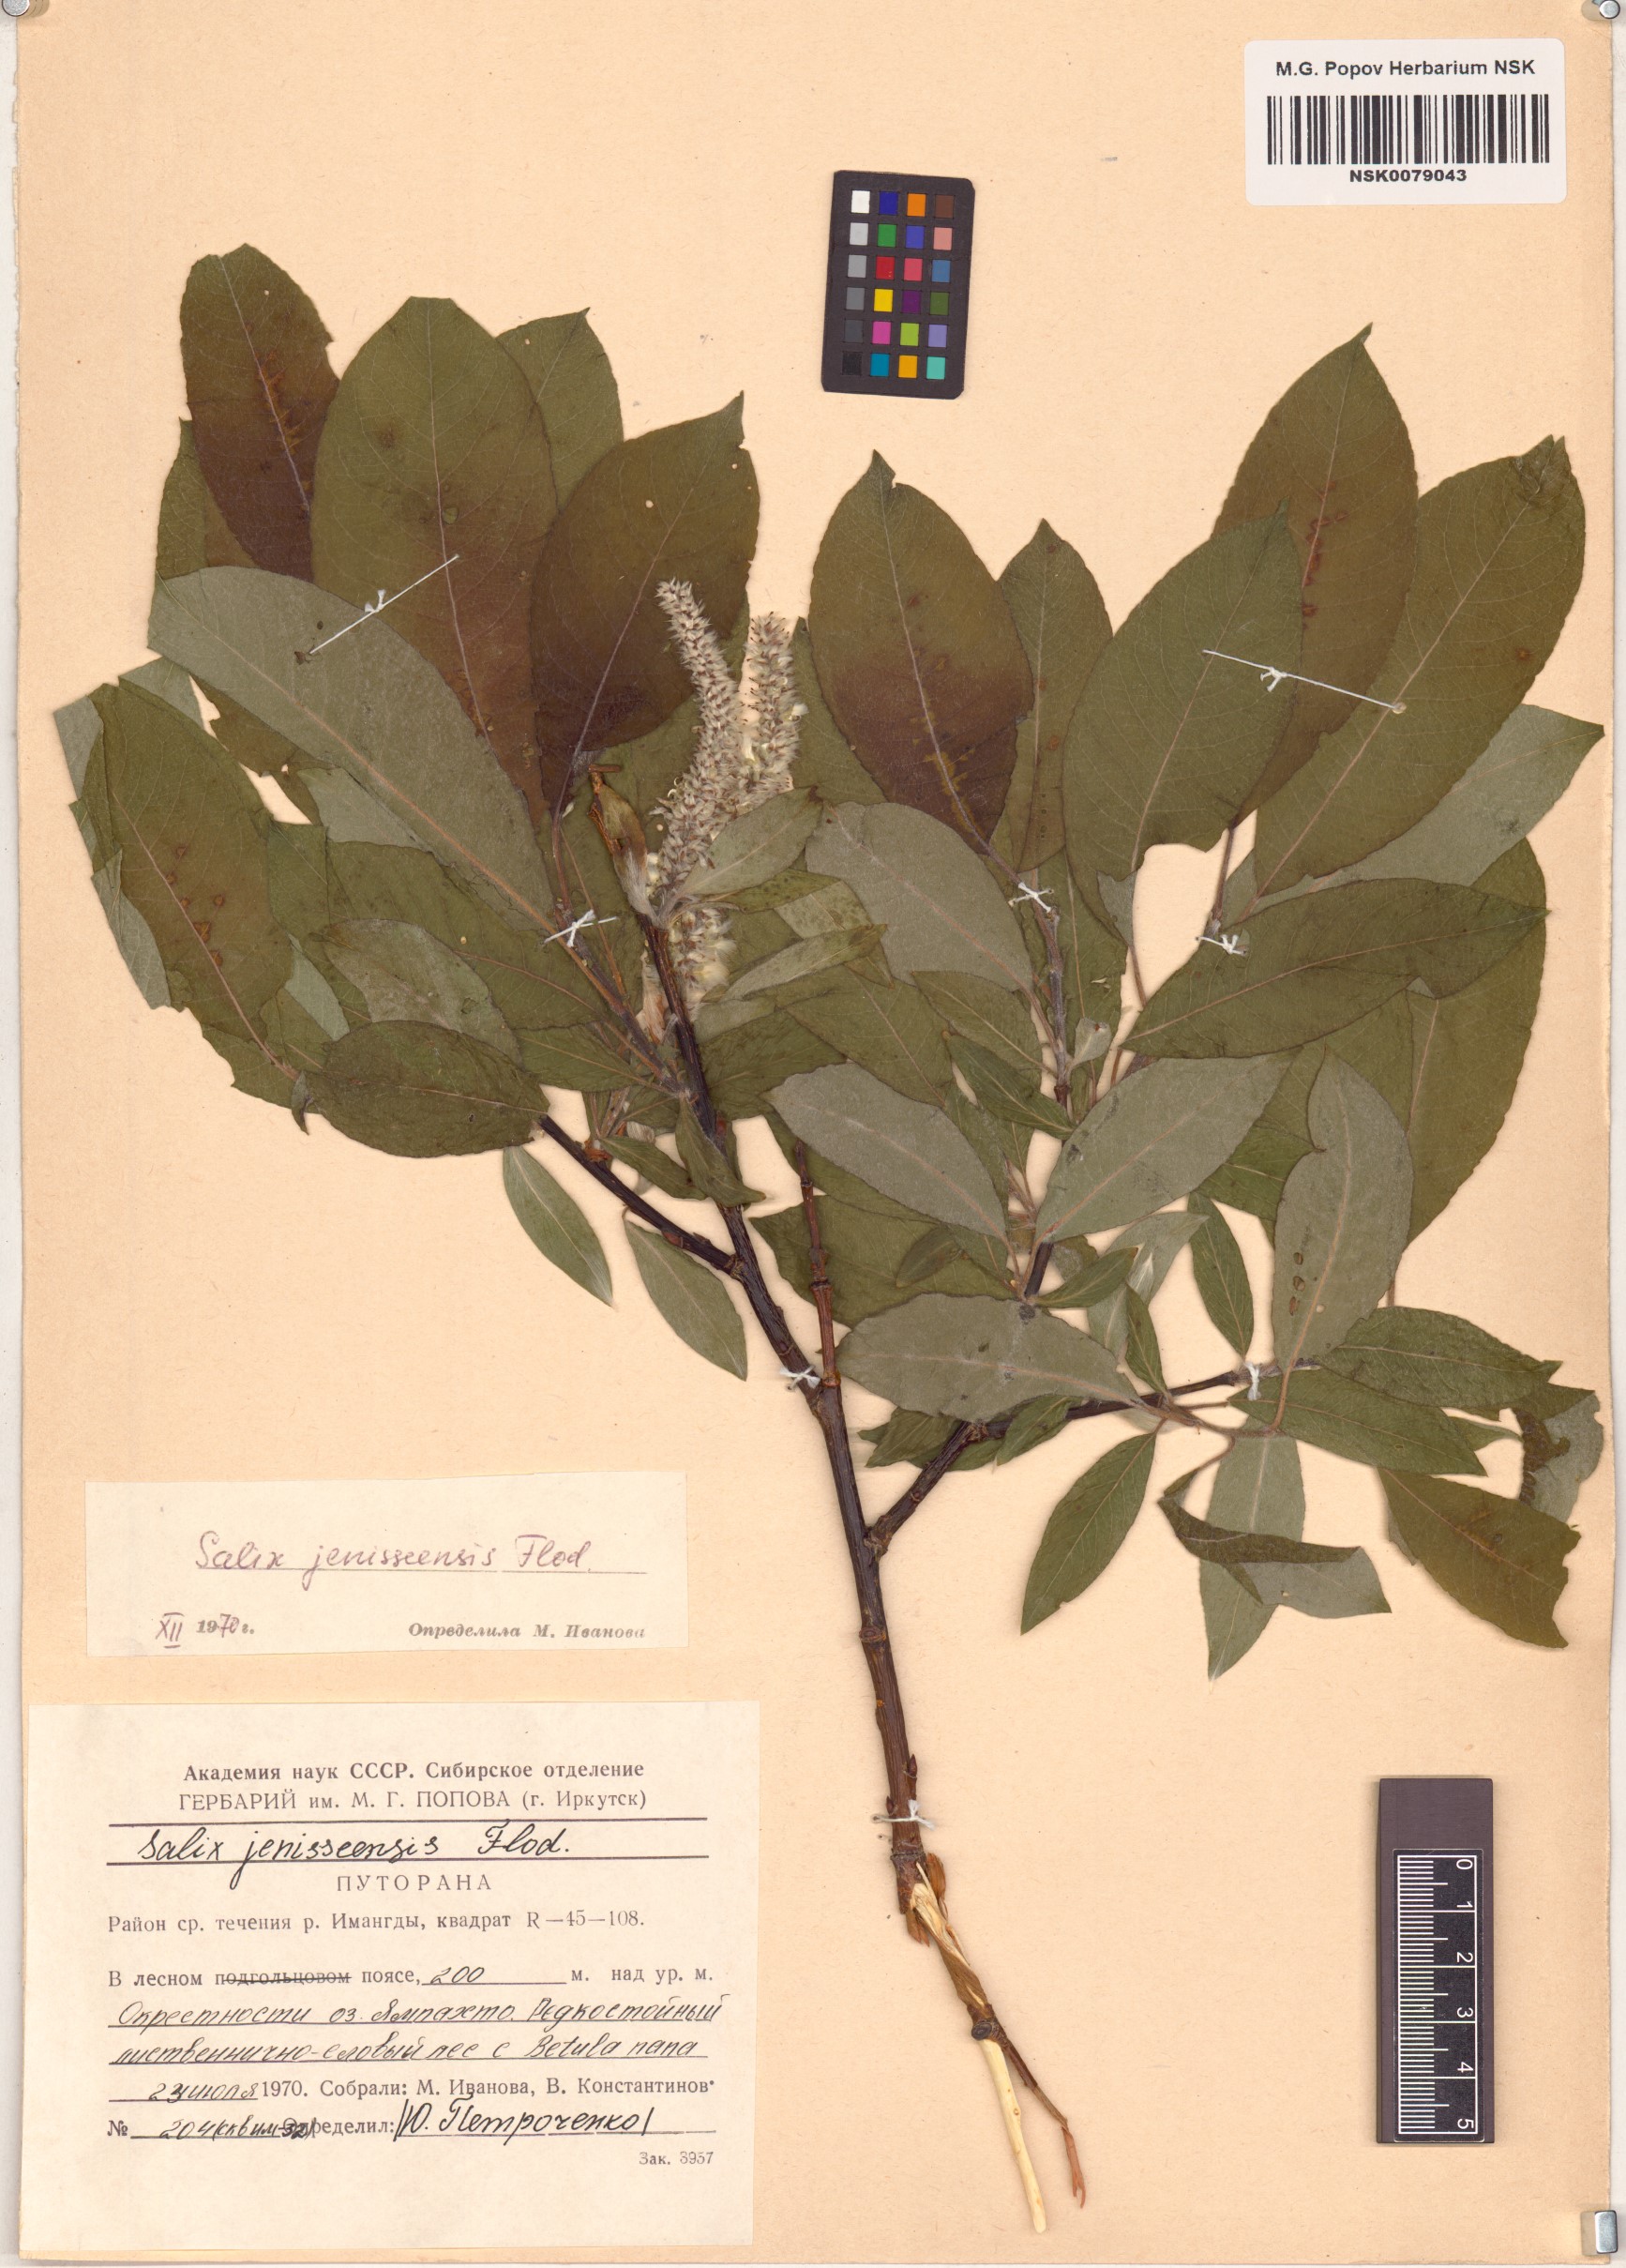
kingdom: Plantae
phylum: Tracheophyta
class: Magnoliopsida
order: Malpighiales
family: Salicaceae
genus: Salix
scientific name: Salix jenisseensis
